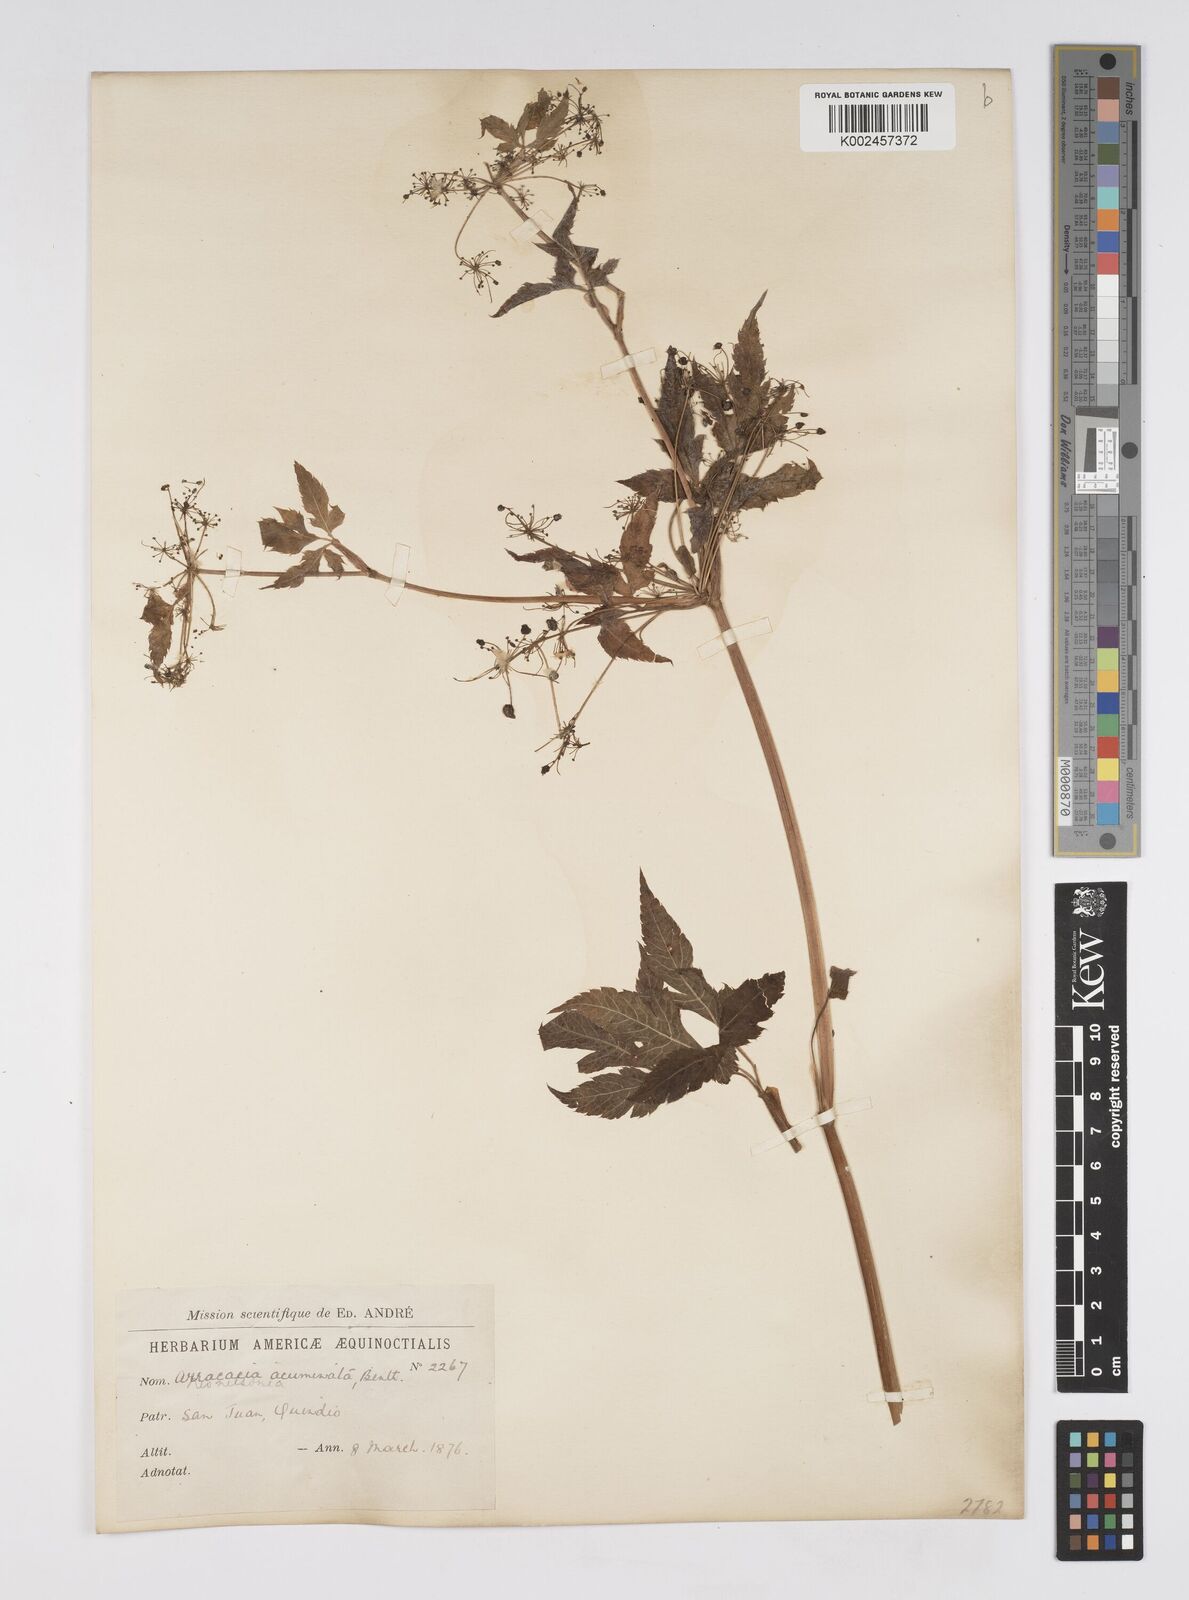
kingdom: Plantae
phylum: Tracheophyta
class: Magnoliopsida
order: Apiales
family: Apiaceae
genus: Neonelsonia
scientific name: Neonelsonia acuminata
